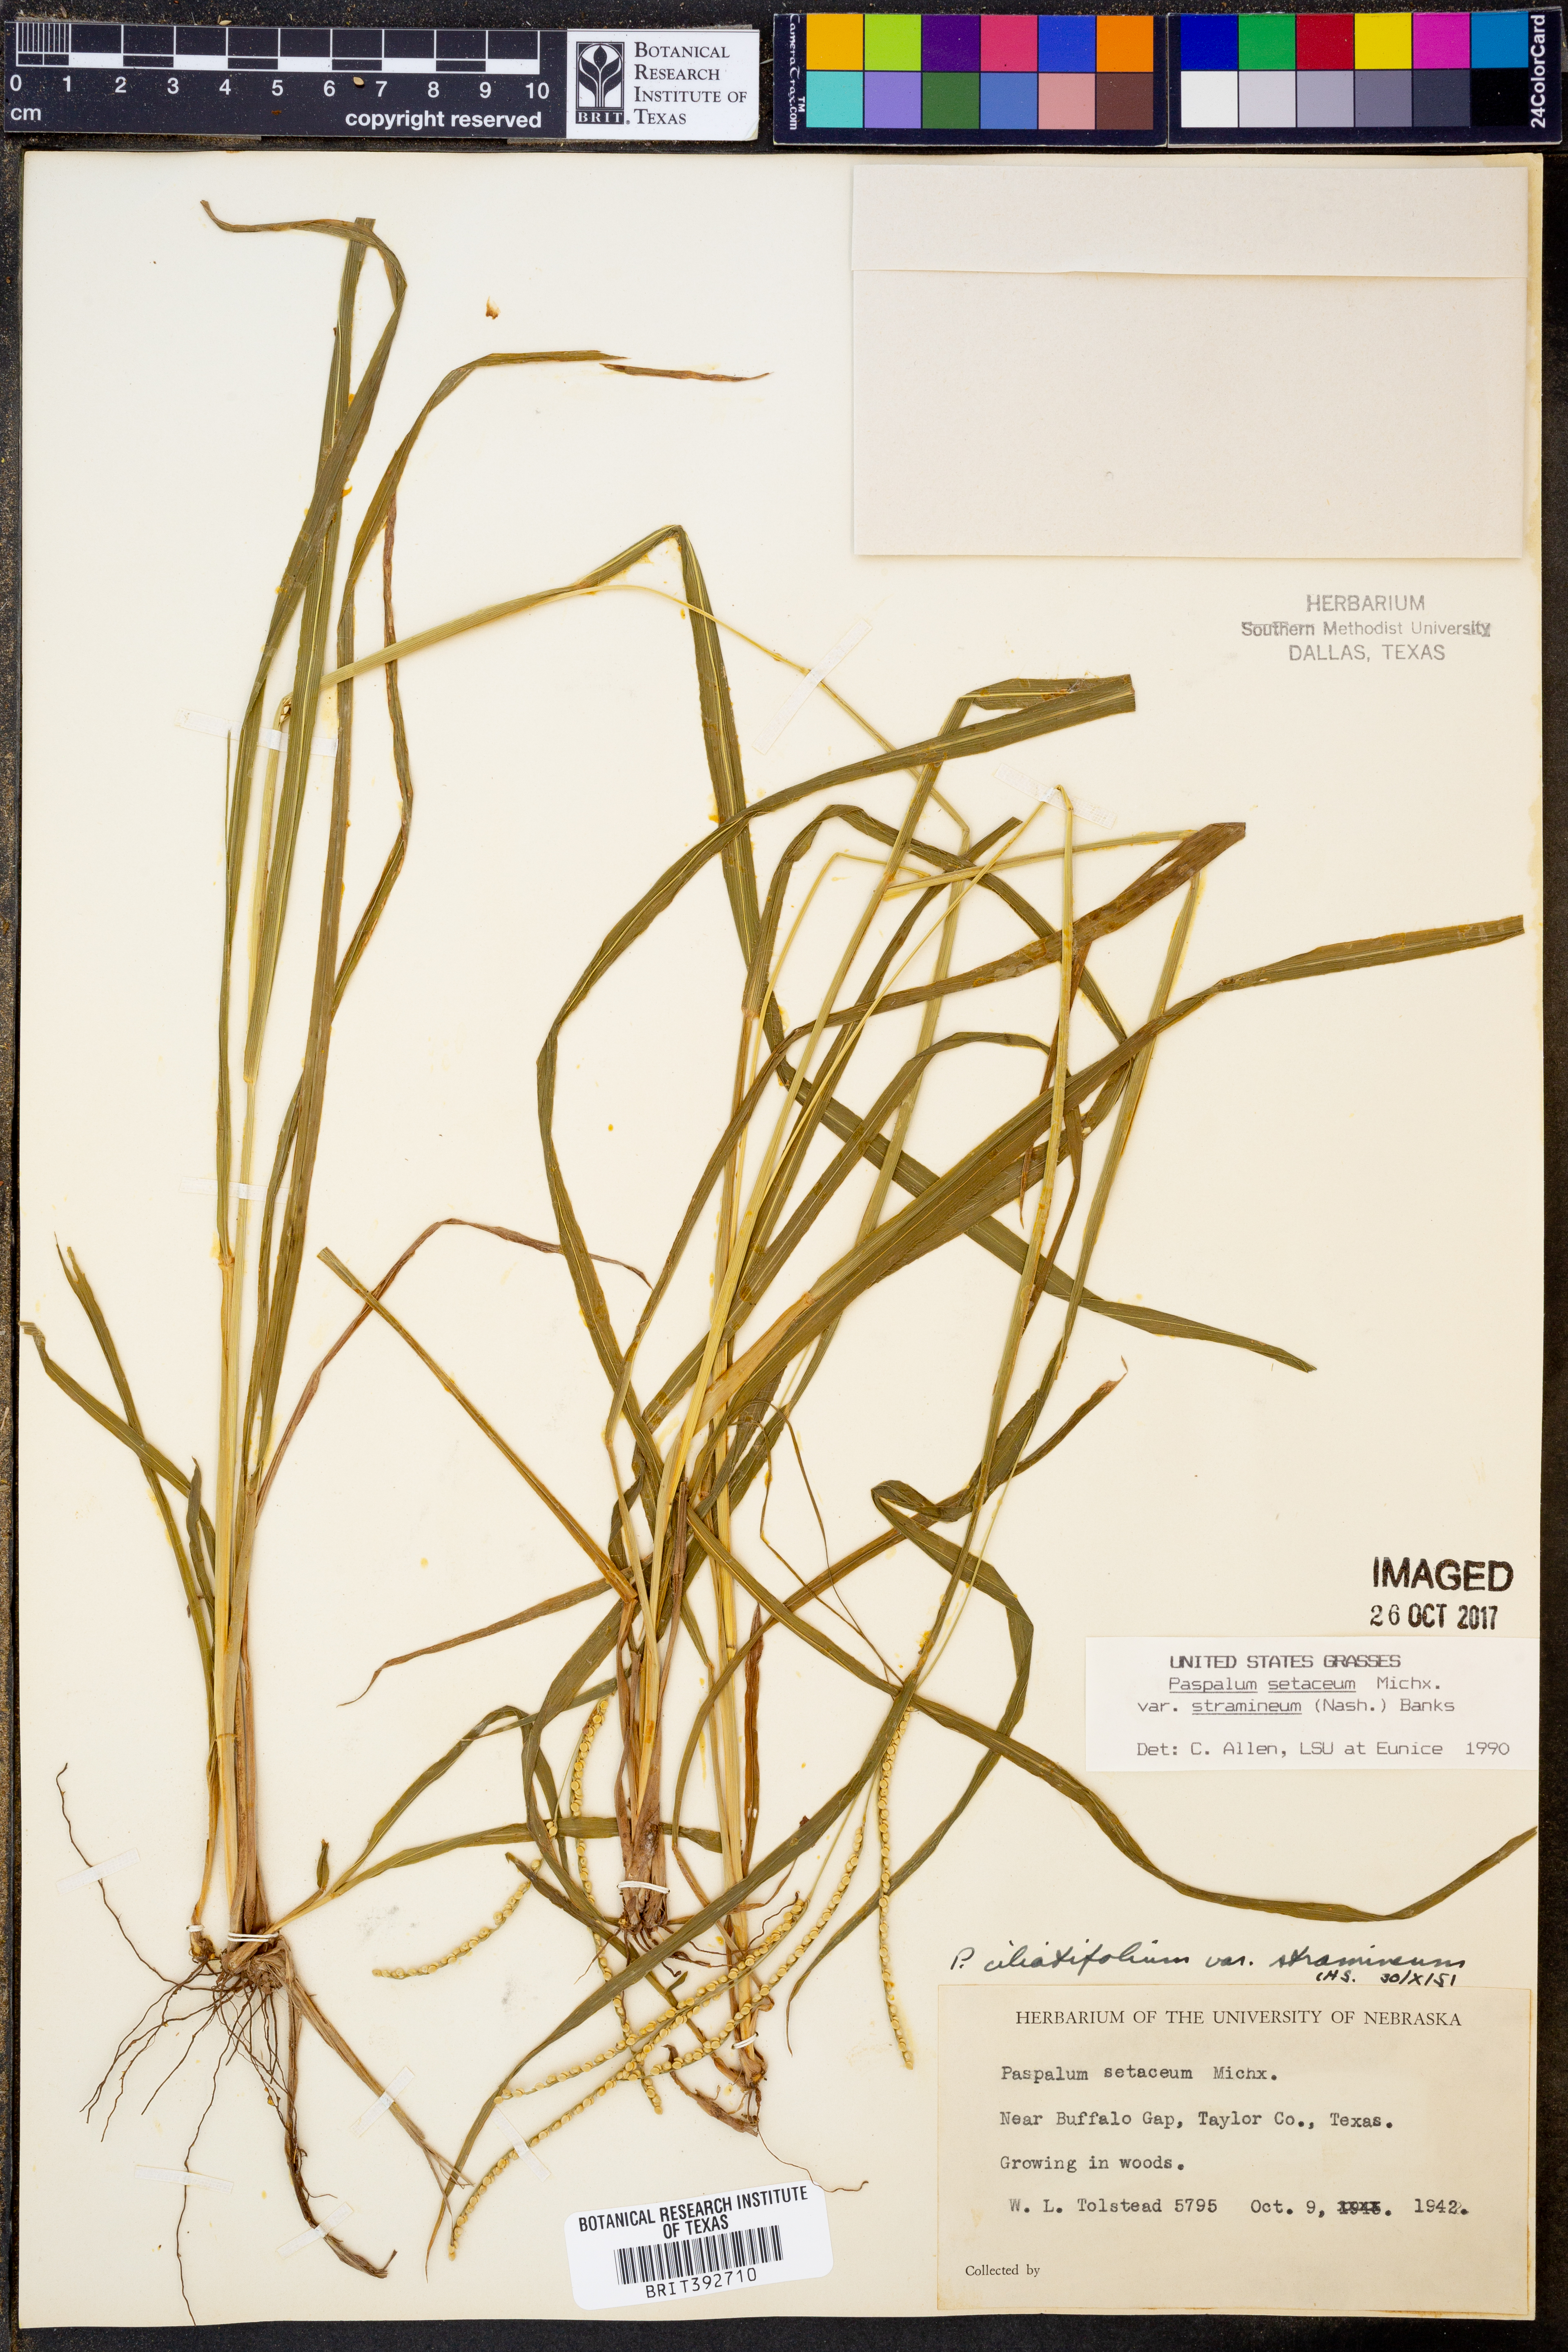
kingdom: Plantae
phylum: Tracheophyta
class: Liliopsida
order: Poales
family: Poaceae
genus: Paspalum
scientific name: Paspalum setaceum
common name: Slender paspalum
